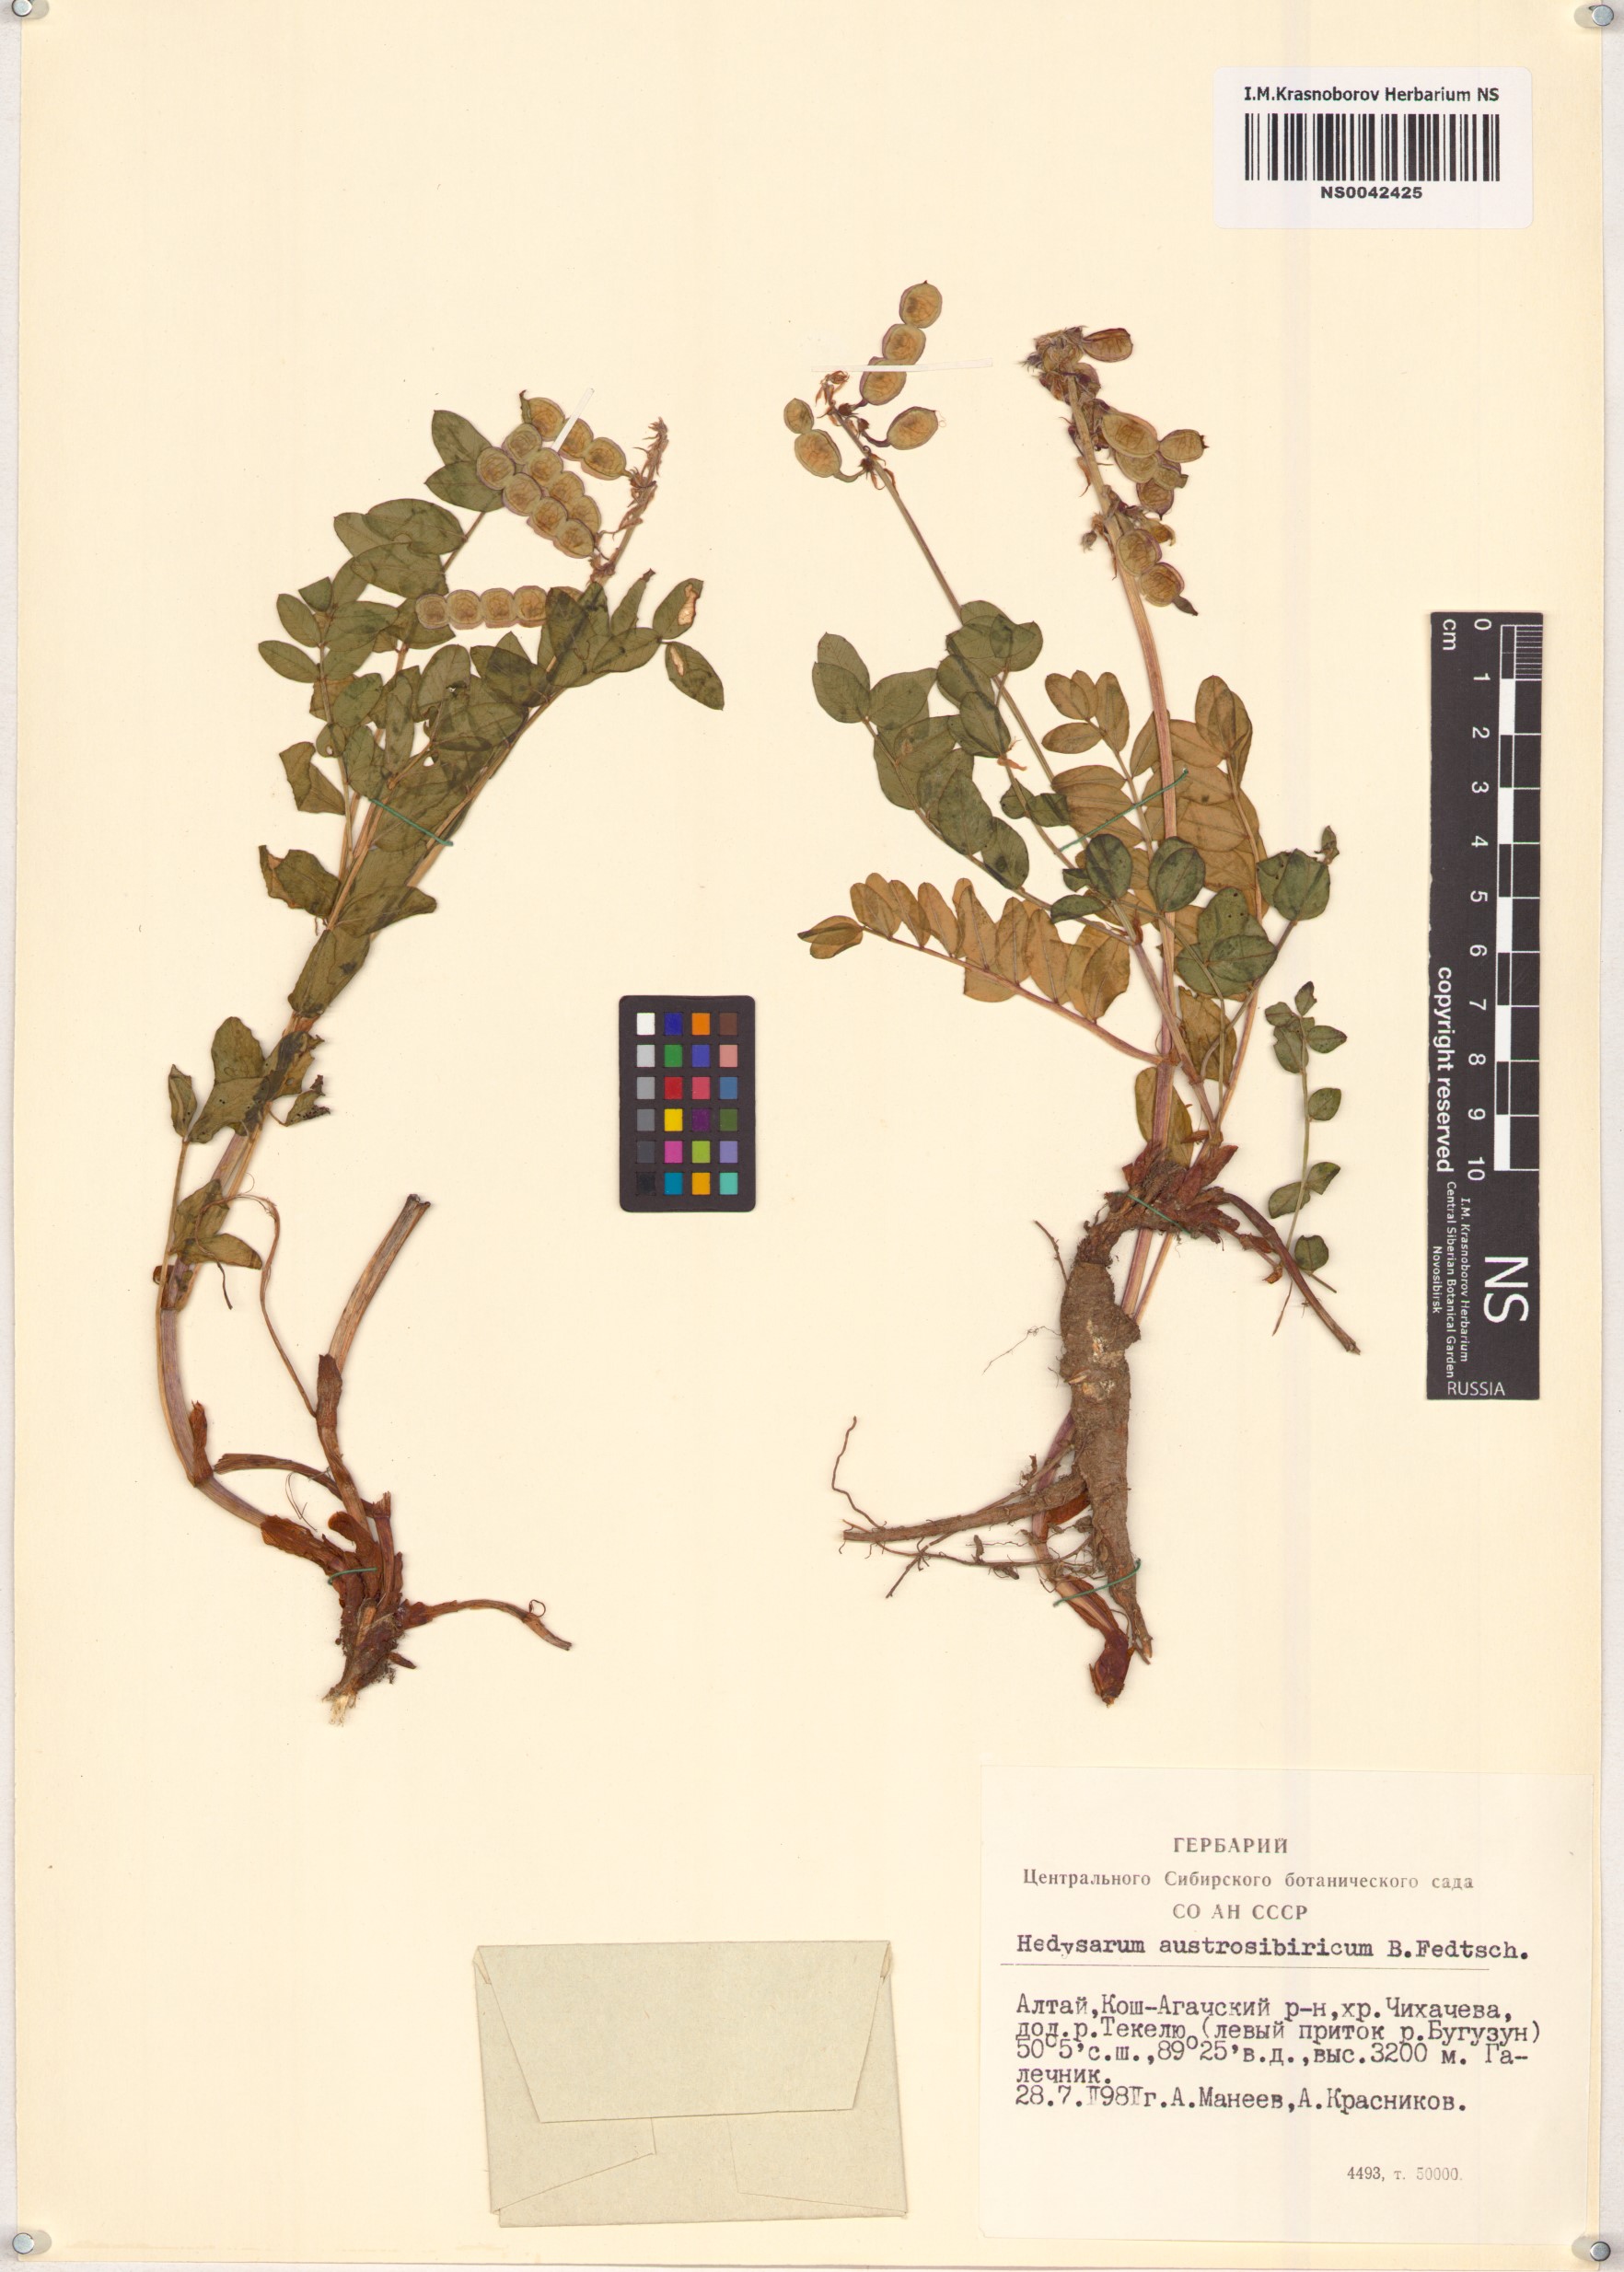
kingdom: Plantae
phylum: Tracheophyta
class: Magnoliopsida
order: Fabales
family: Fabaceae
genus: Hedysarum
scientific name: Hedysarum neglectum
